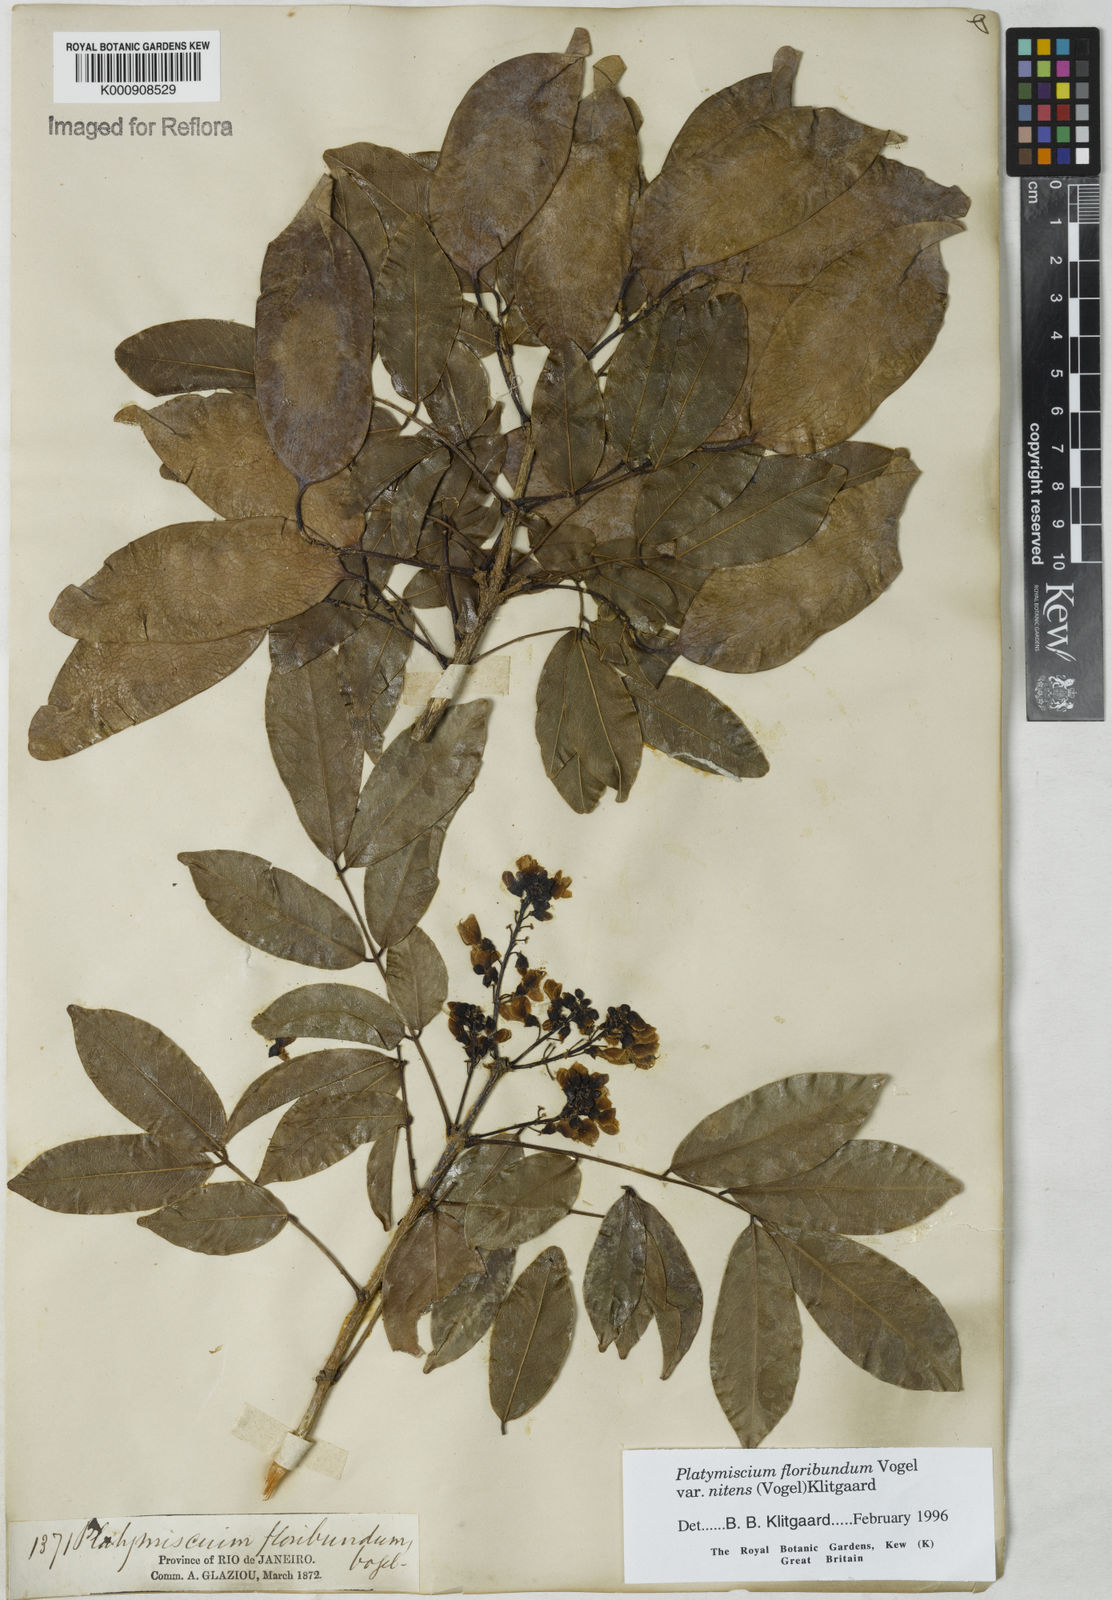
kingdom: Plantae
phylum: Tracheophyta
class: Magnoliopsida
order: Fabales
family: Fabaceae
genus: Platymiscium
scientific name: Platymiscium floribundum
